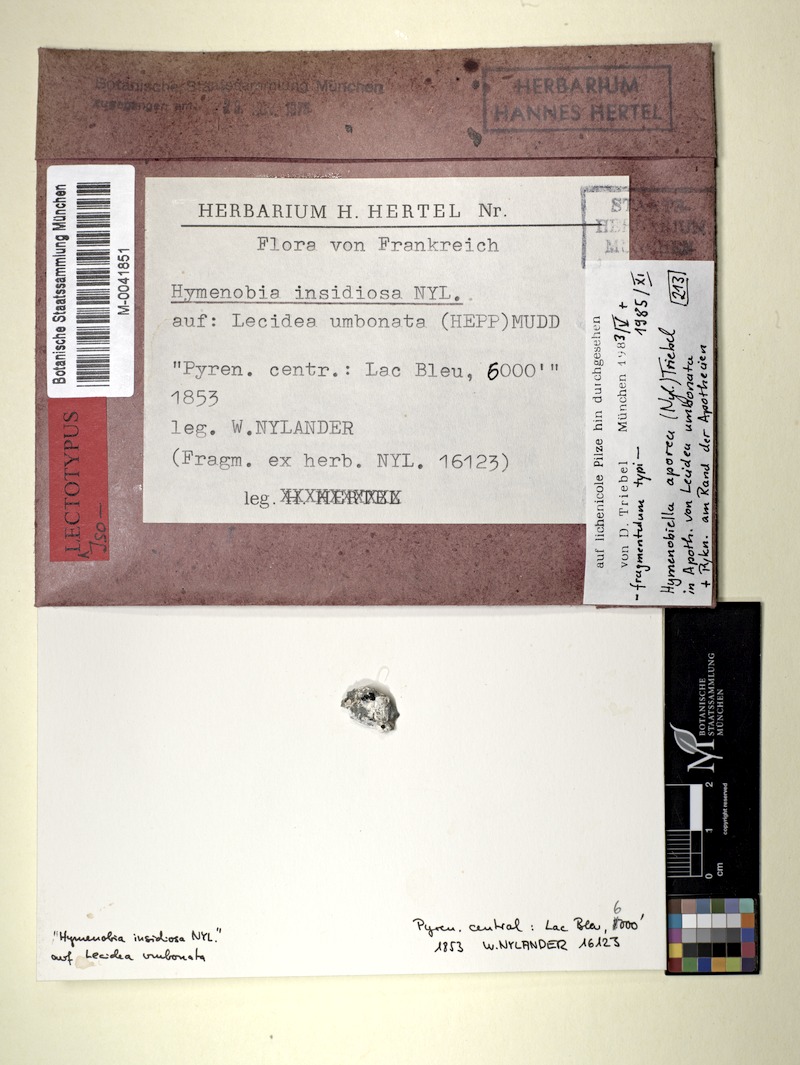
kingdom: Fungi
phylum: Ascomycota
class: Dothideomycetes
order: Pleosporales
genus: Hymenobia
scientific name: Hymenobia aporea
